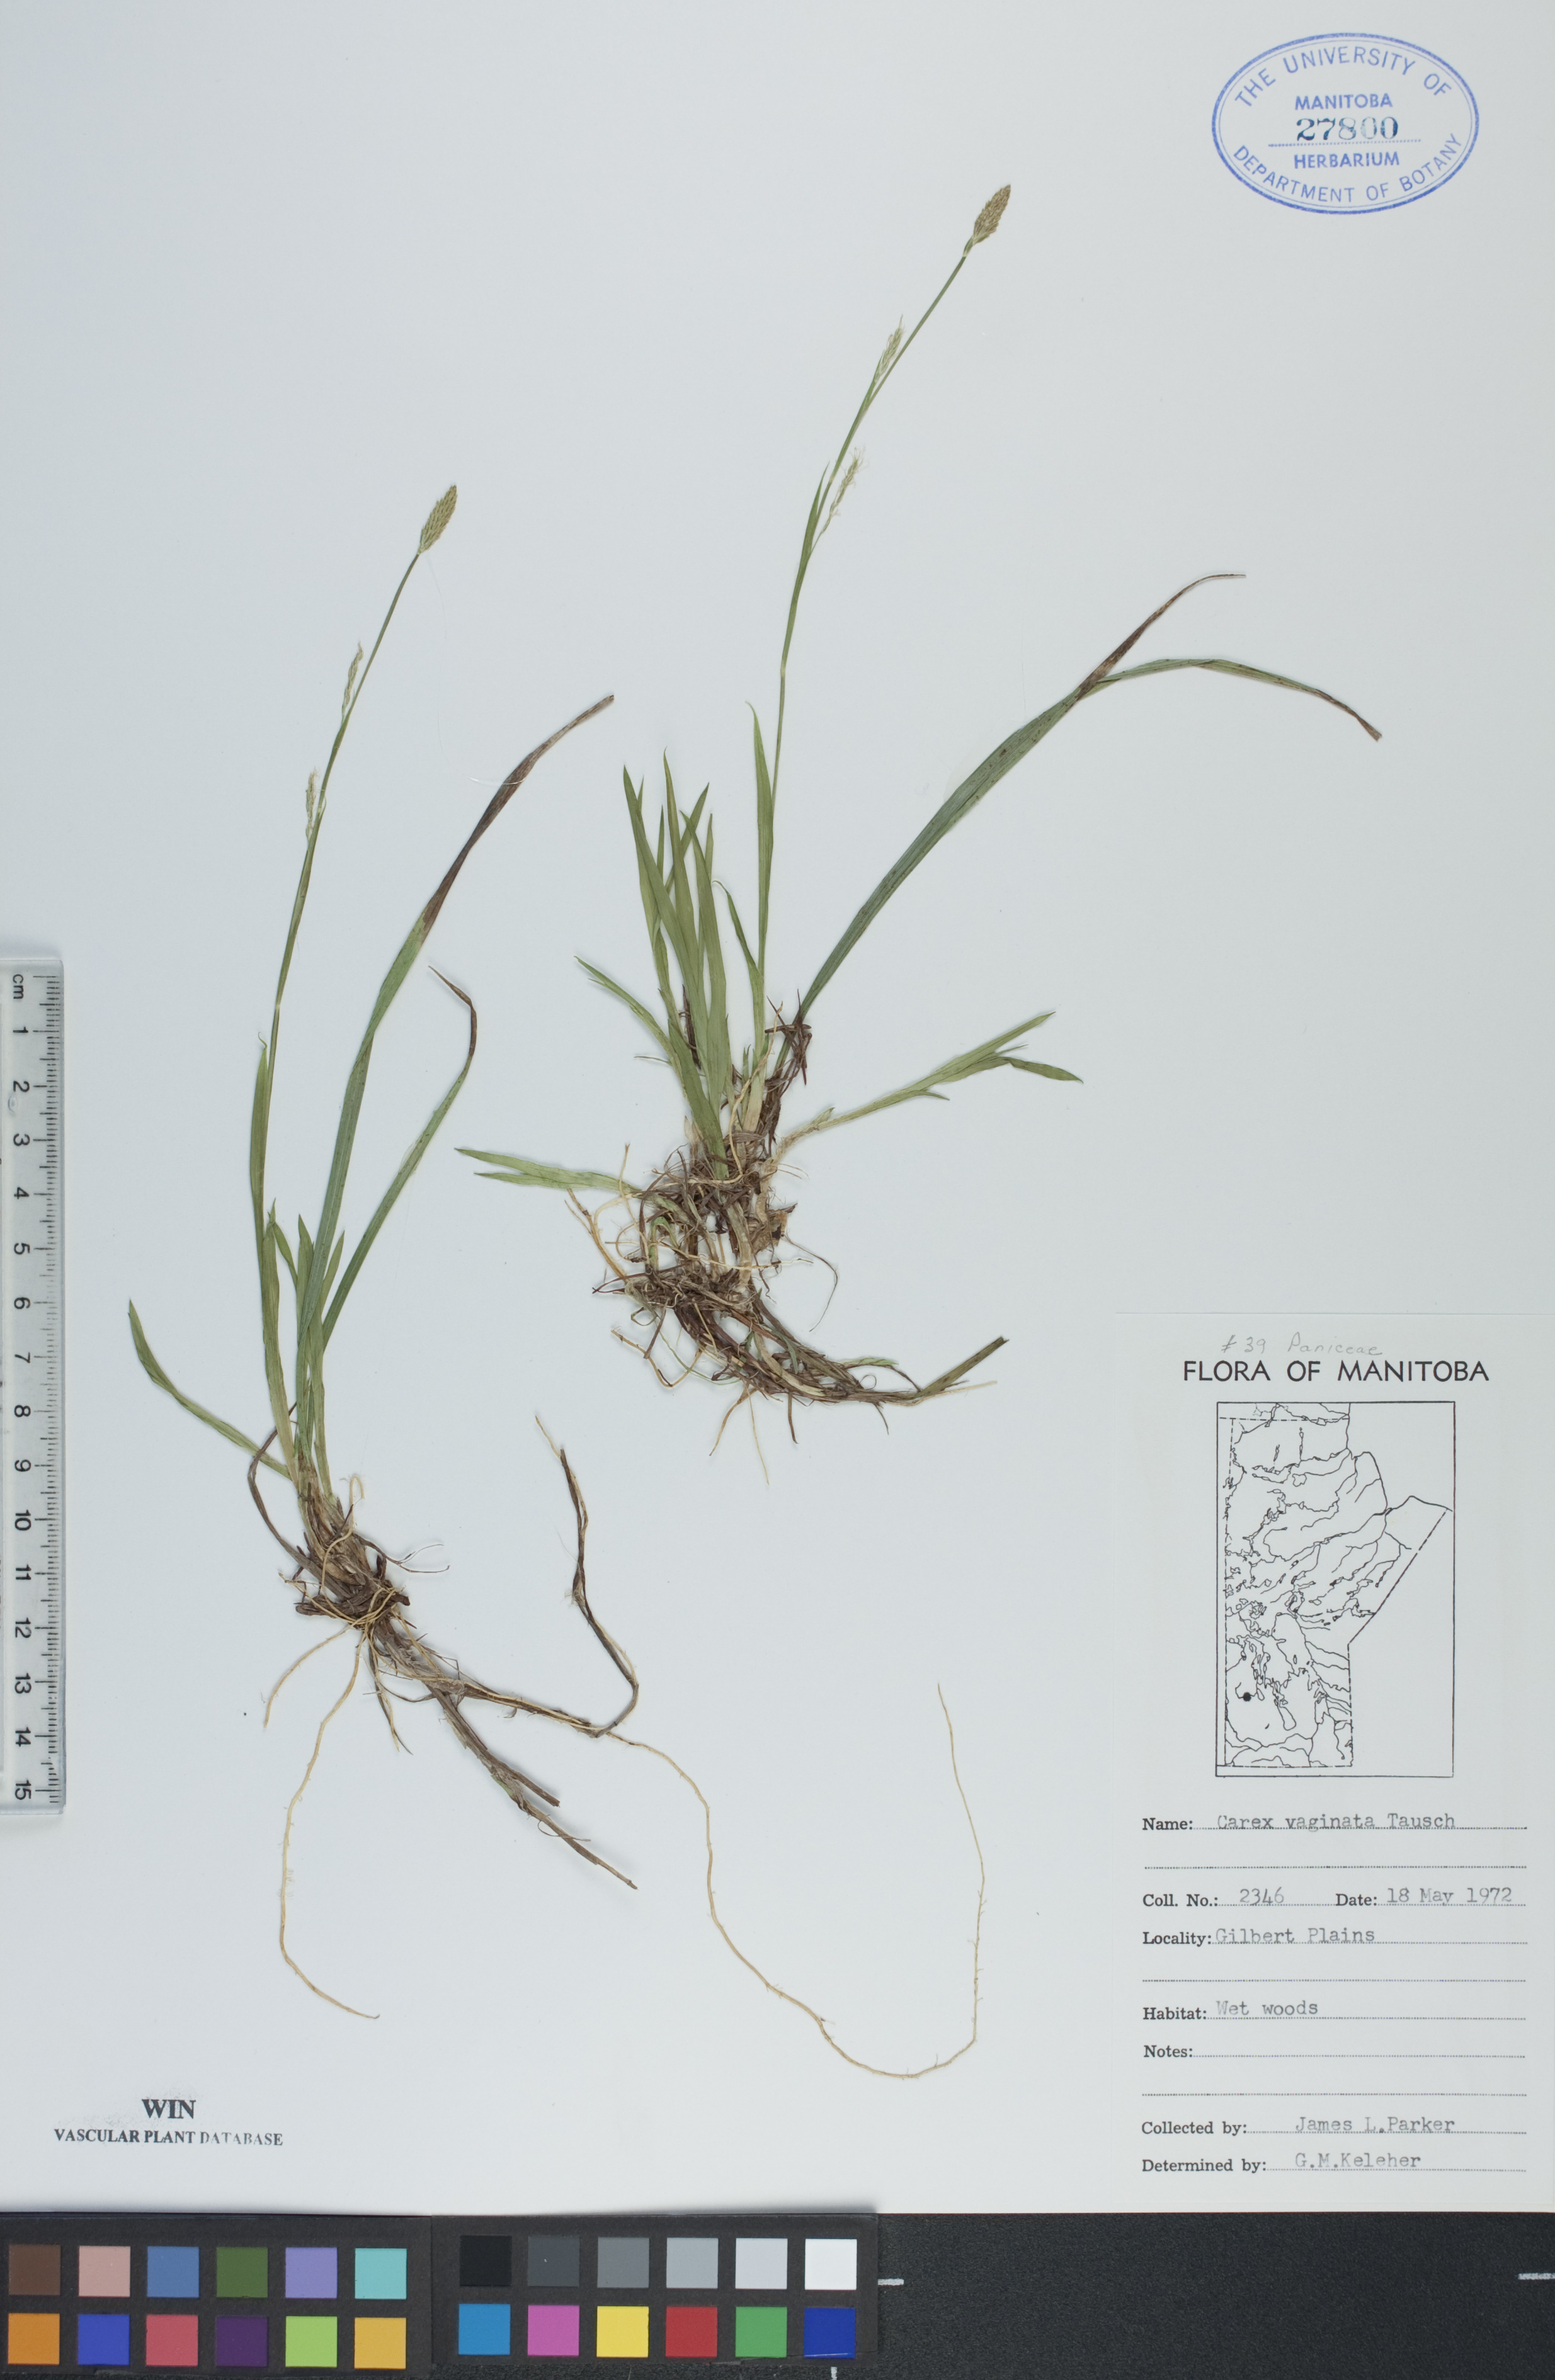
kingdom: Plantae
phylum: Tracheophyta
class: Liliopsida
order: Poales
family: Cyperaceae
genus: Carex
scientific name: Carex vaginata
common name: Sheathed sedge
